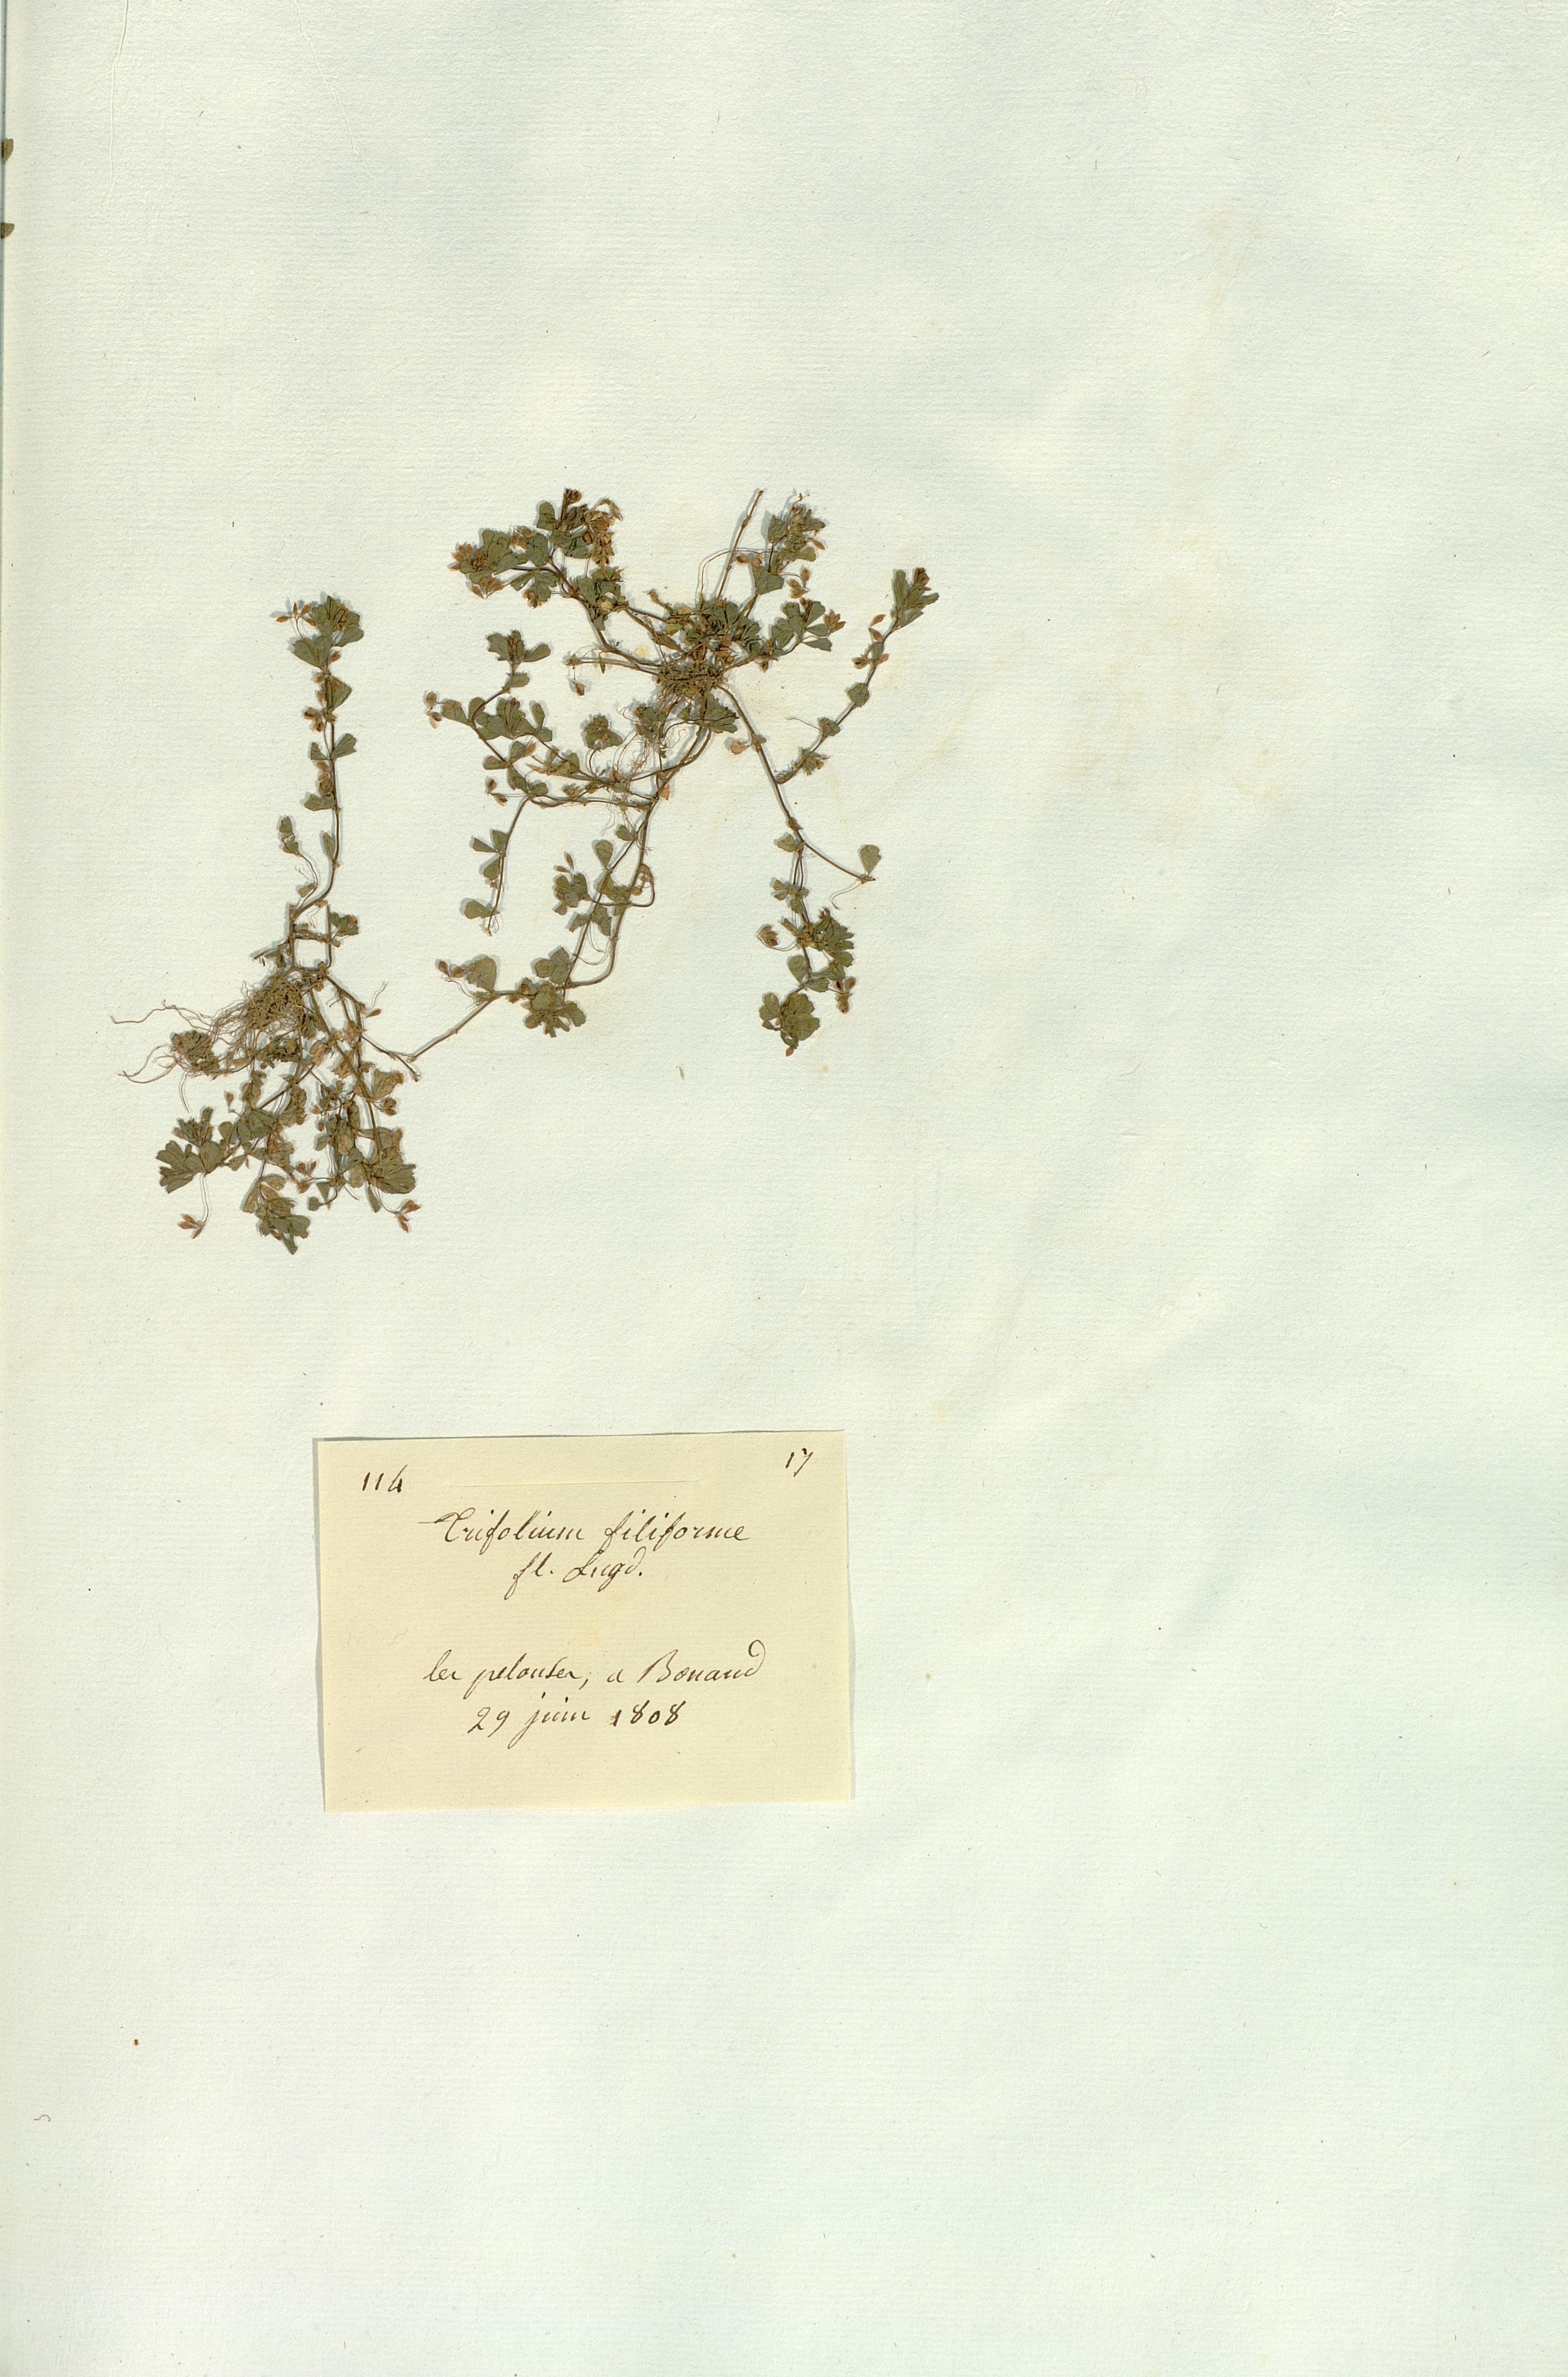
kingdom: Plantae
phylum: Tracheophyta
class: Magnoliopsida
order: Fabales
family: Fabaceae
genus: Trifolium
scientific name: Trifolium micranthum
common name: Slender trefoil
